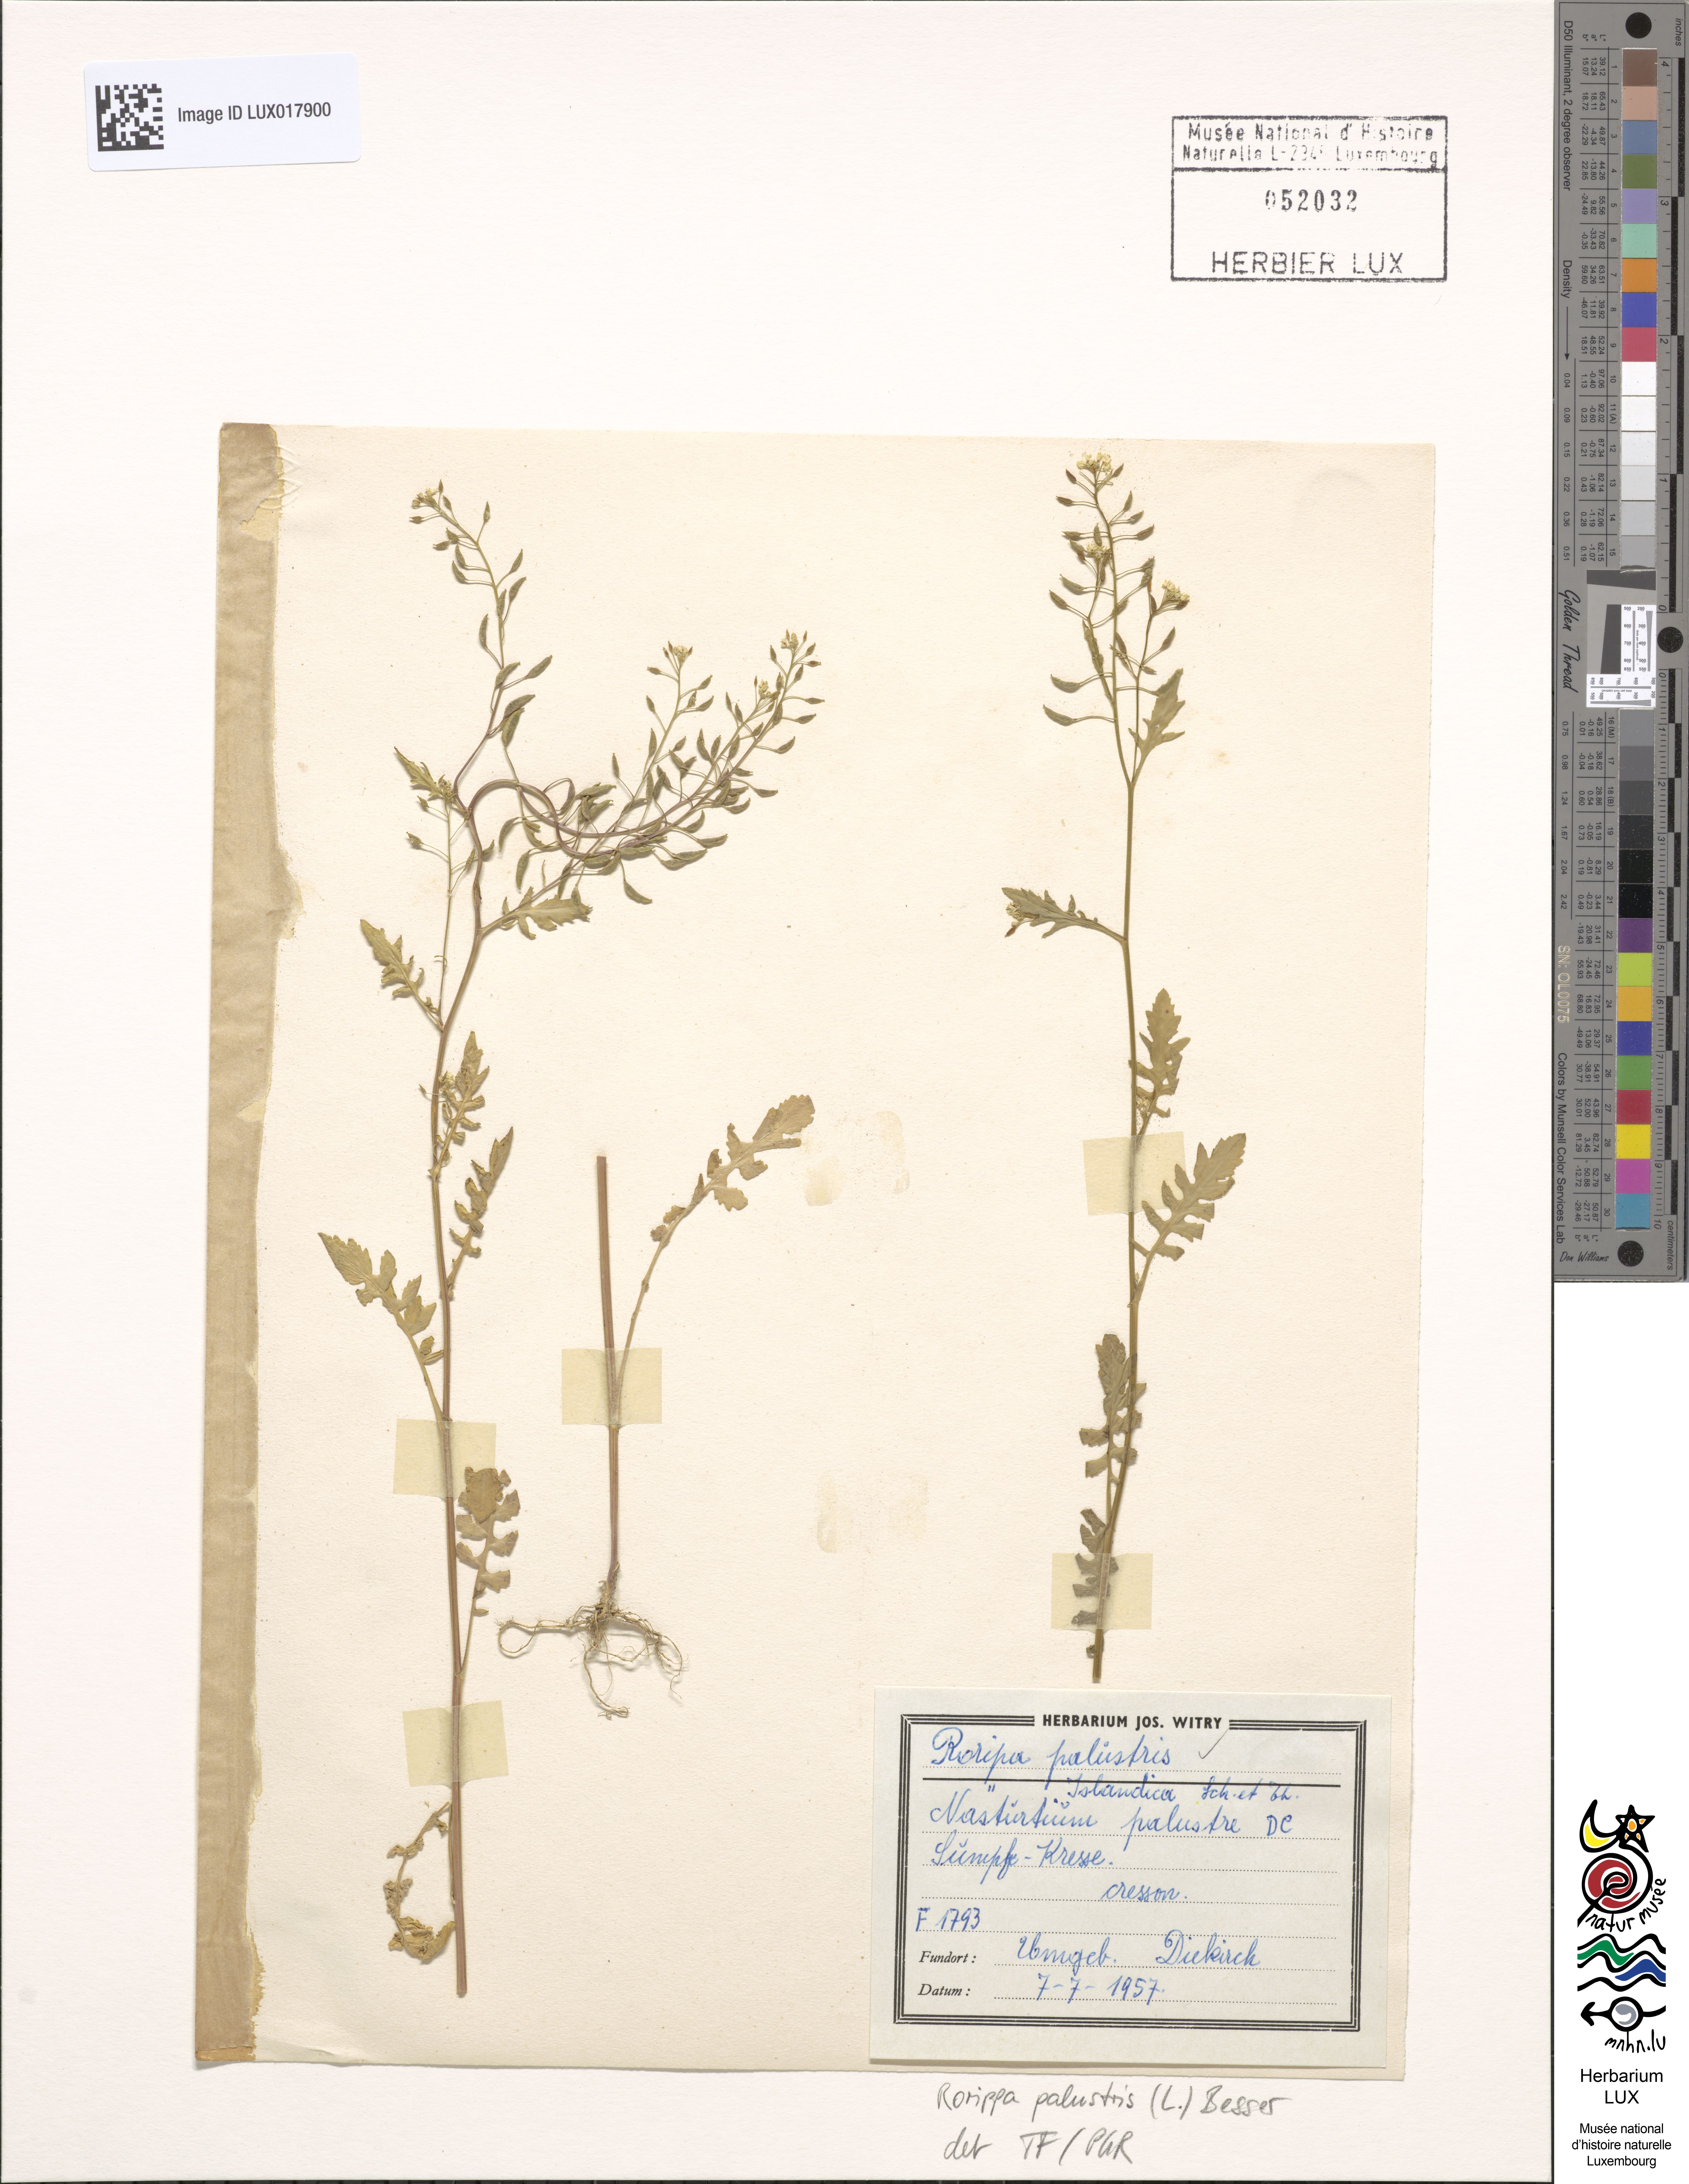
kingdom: Plantae
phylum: Tracheophyta
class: Magnoliopsida
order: Brassicales
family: Brassicaceae
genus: Rorippa
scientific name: Rorippa palustris
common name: Marsh yellow-cress
